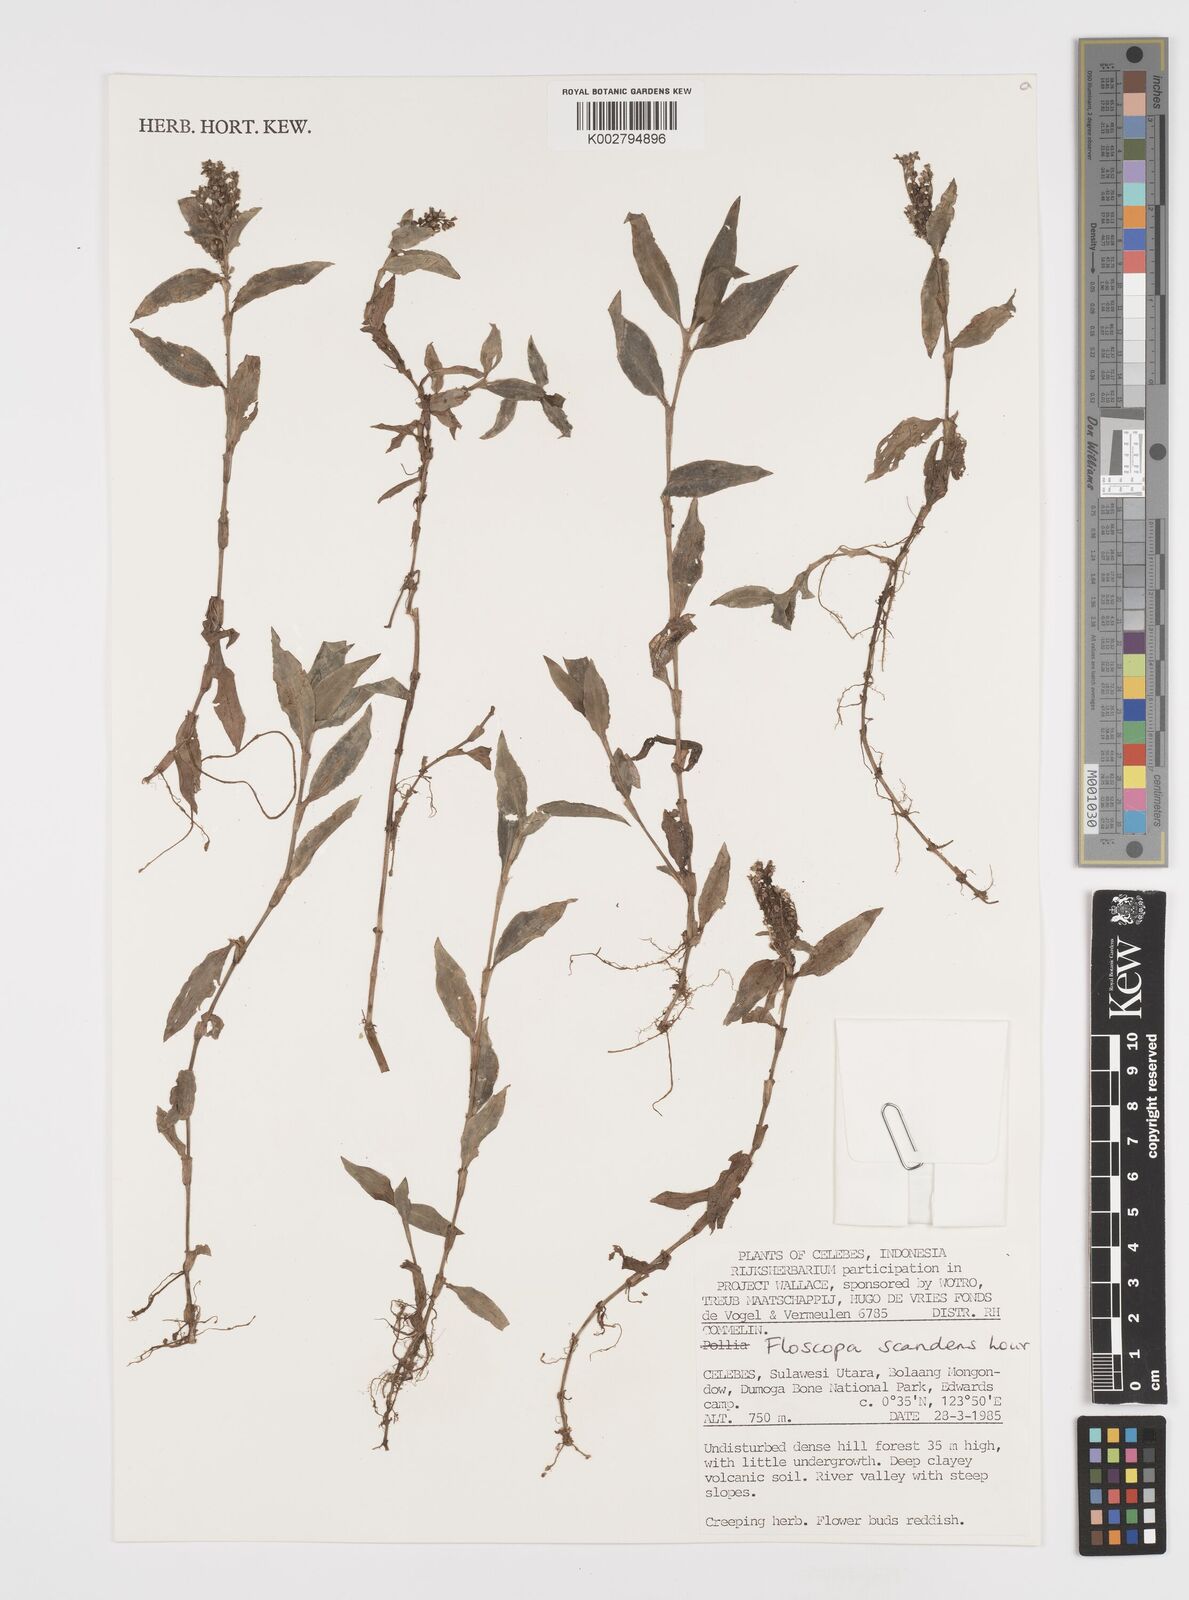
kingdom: Plantae
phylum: Tracheophyta
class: Liliopsida
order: Commelinales
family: Commelinaceae
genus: Floscopa
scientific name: Floscopa scandens
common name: Climbing flower cup
